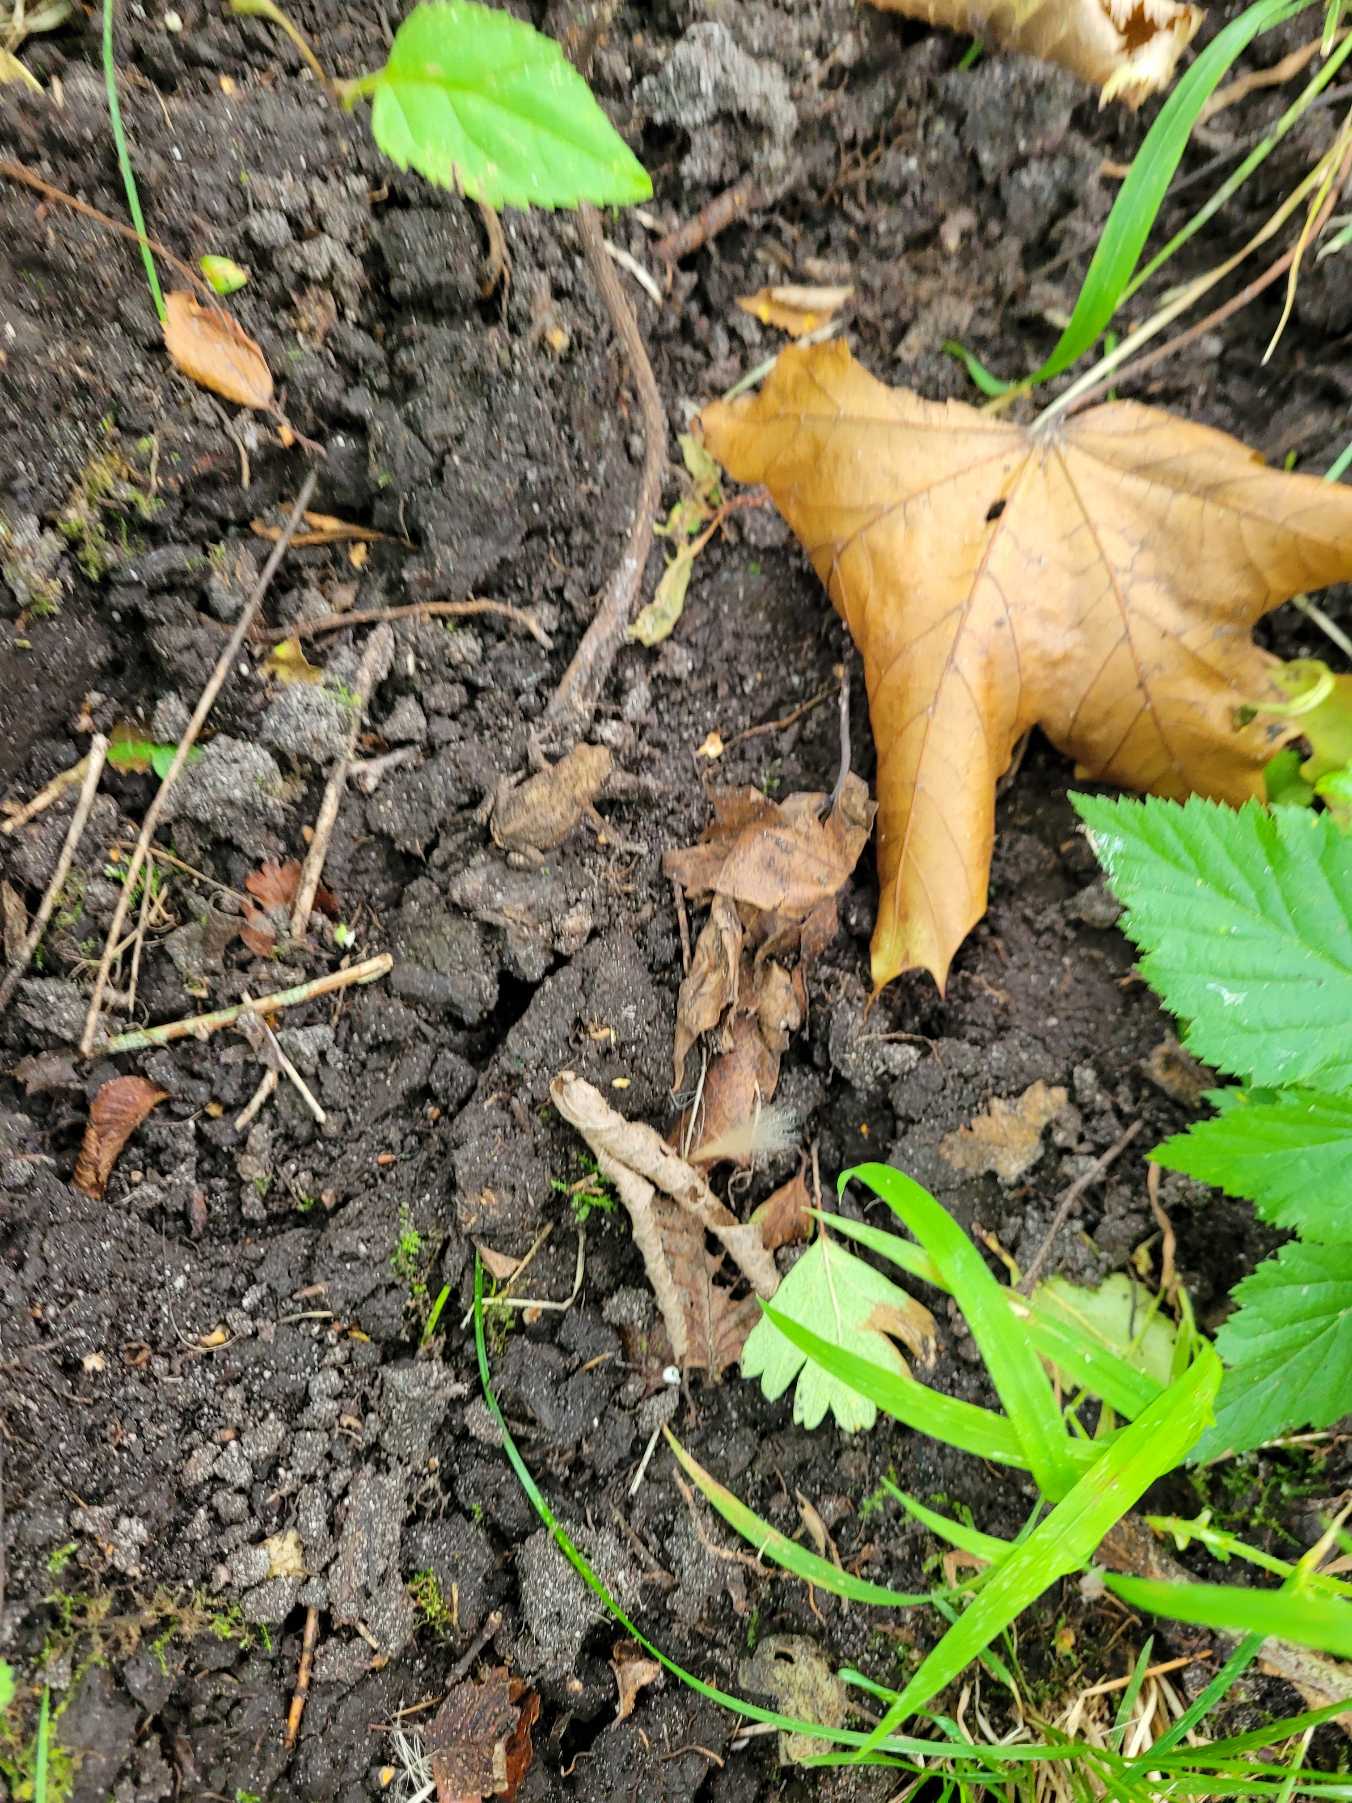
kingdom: Animalia
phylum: Chordata
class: Amphibia
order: Anura
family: Bufonidae
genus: Bufo
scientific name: Bufo bufo
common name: Skrubtudse
